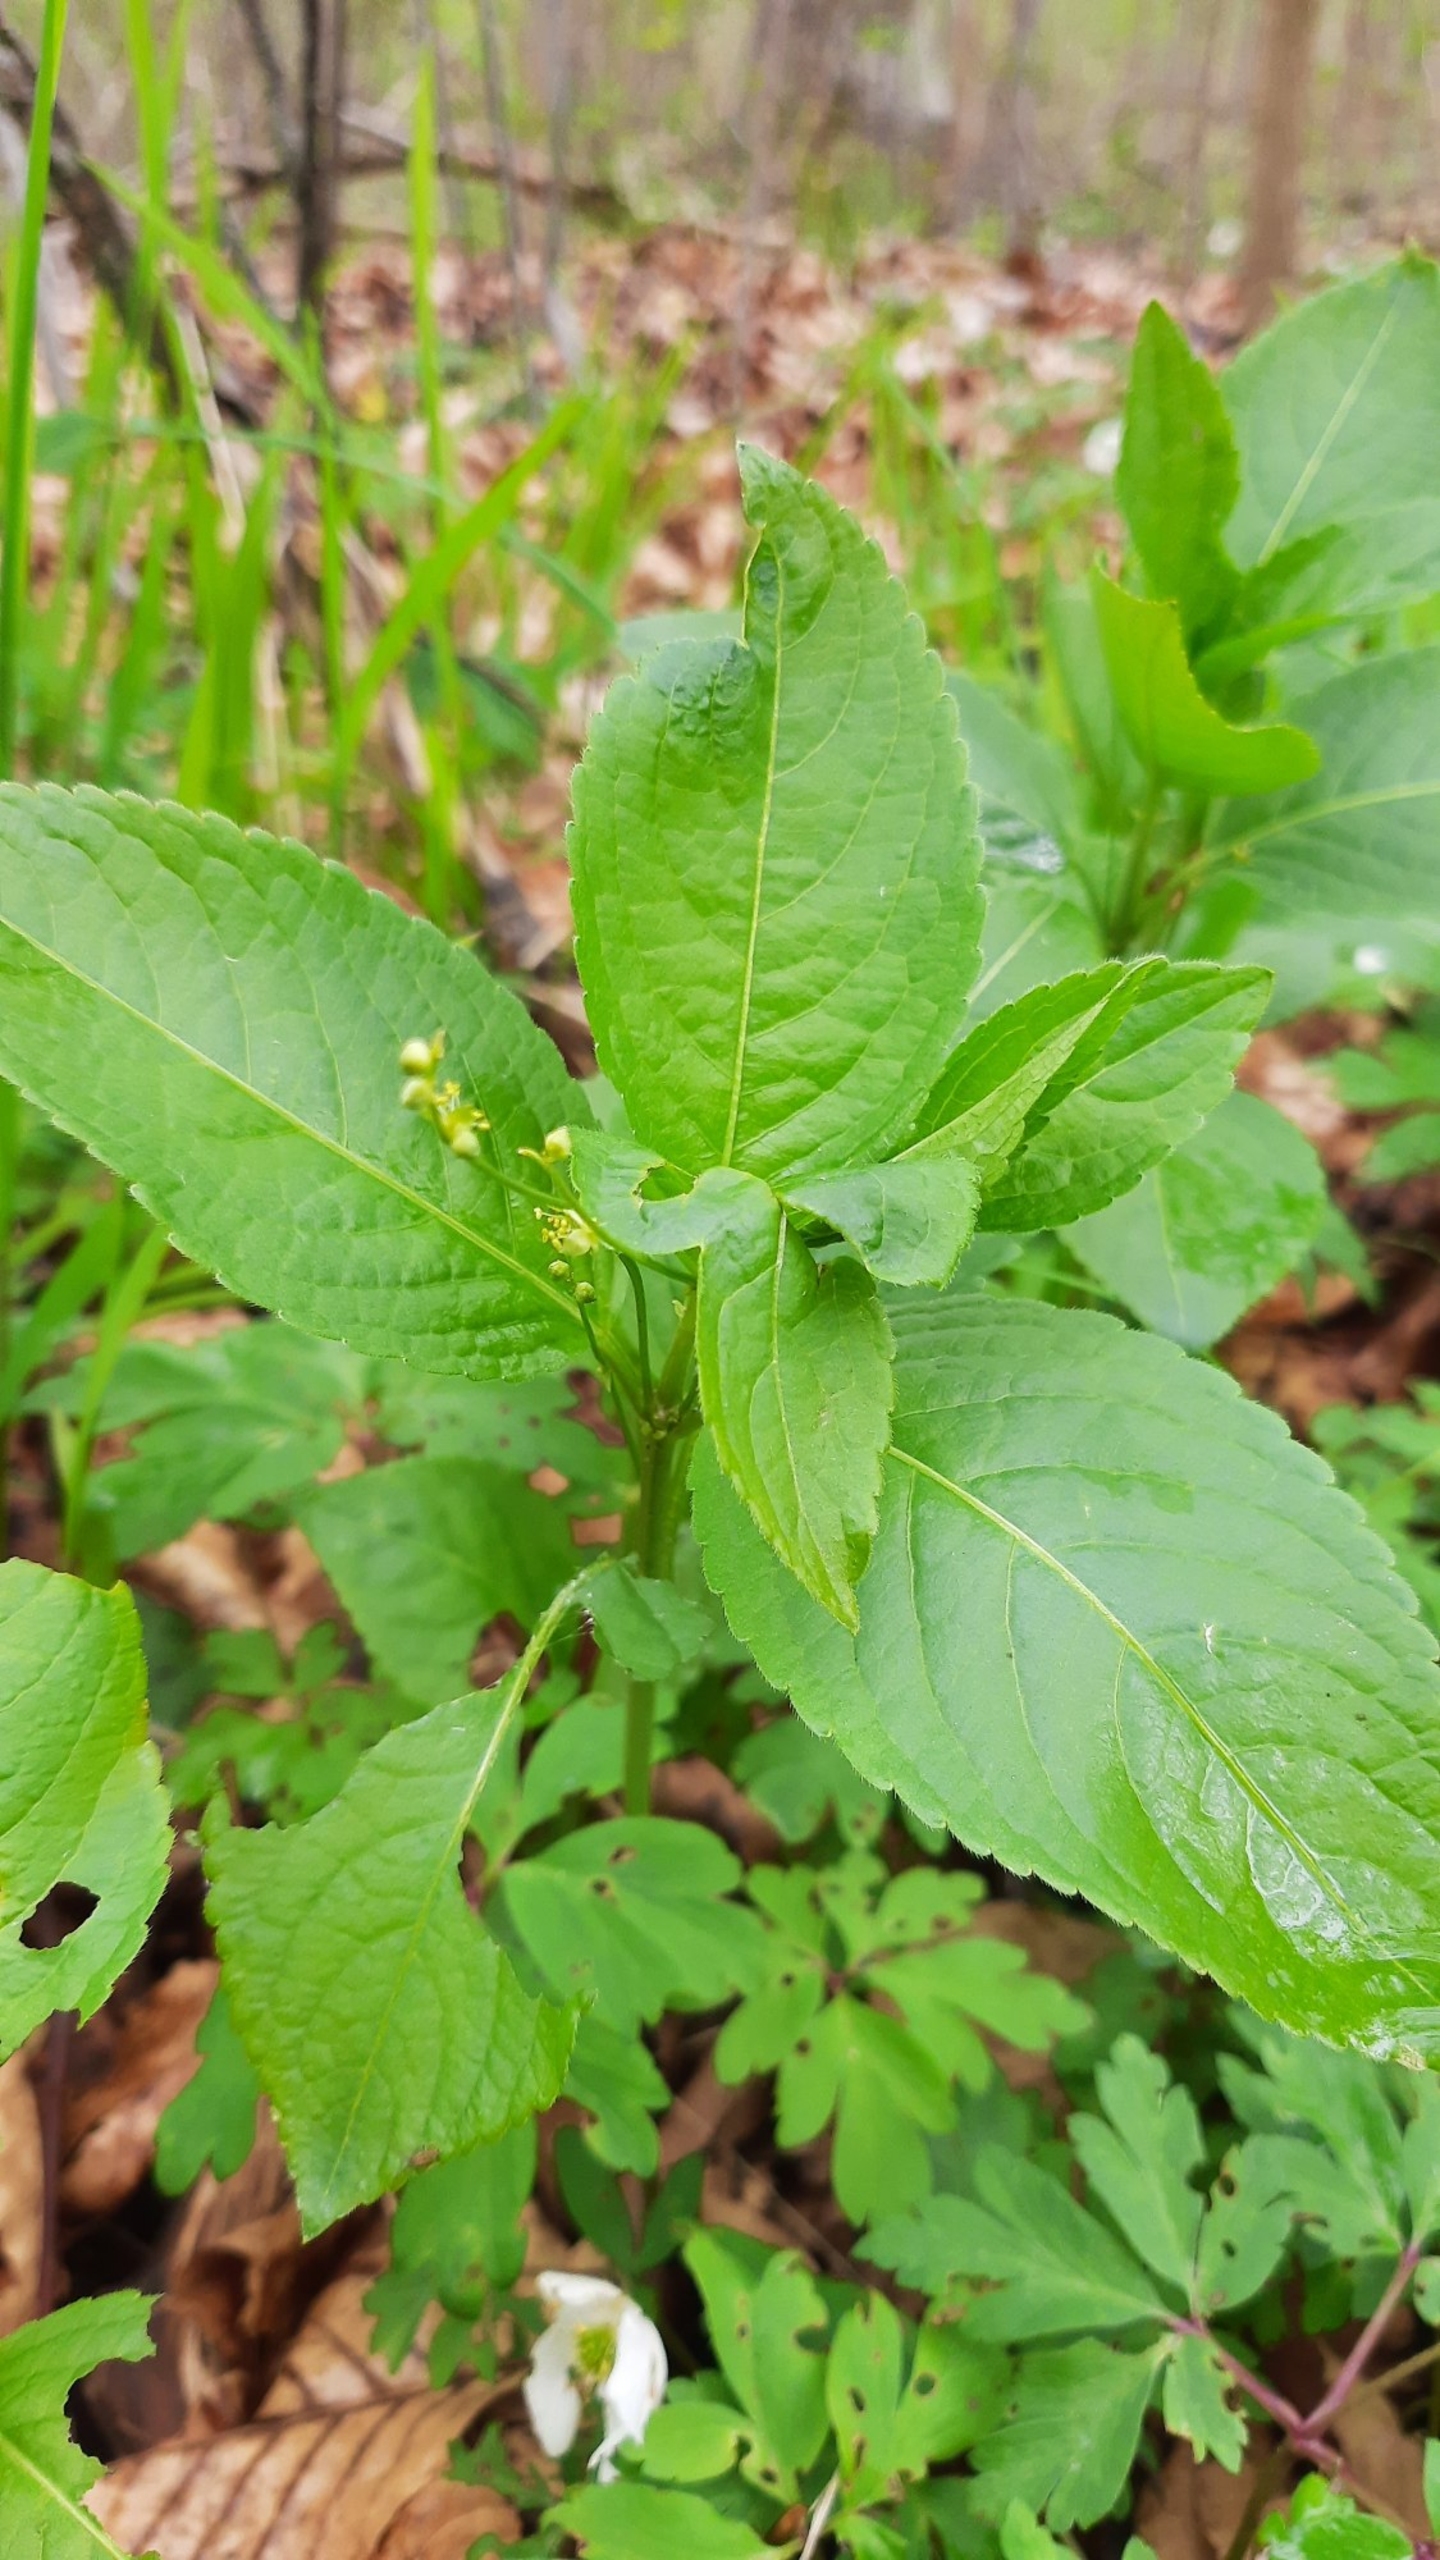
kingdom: Plantae
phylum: Tracheophyta
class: Magnoliopsida
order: Malpighiales
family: Euphorbiaceae
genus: Mercurialis
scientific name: Mercurialis perennis
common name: Almindelig bingelurt
